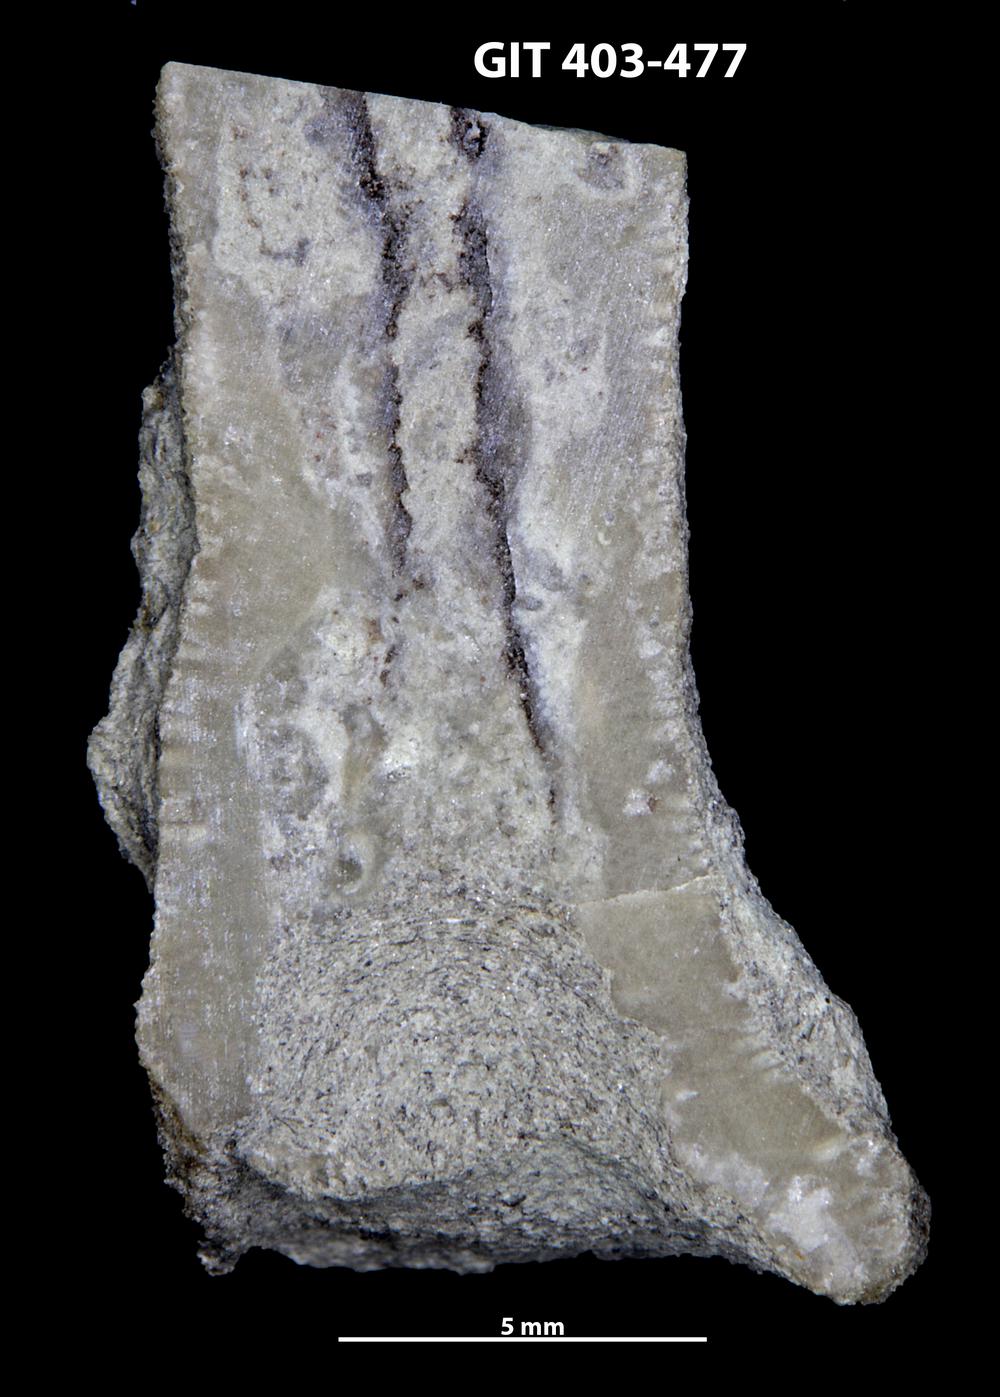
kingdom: Animalia
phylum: Bryozoa
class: Stenolaemata
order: Cystoporida
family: Fistuliporidae
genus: Fistulipora
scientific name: Fistulipora
